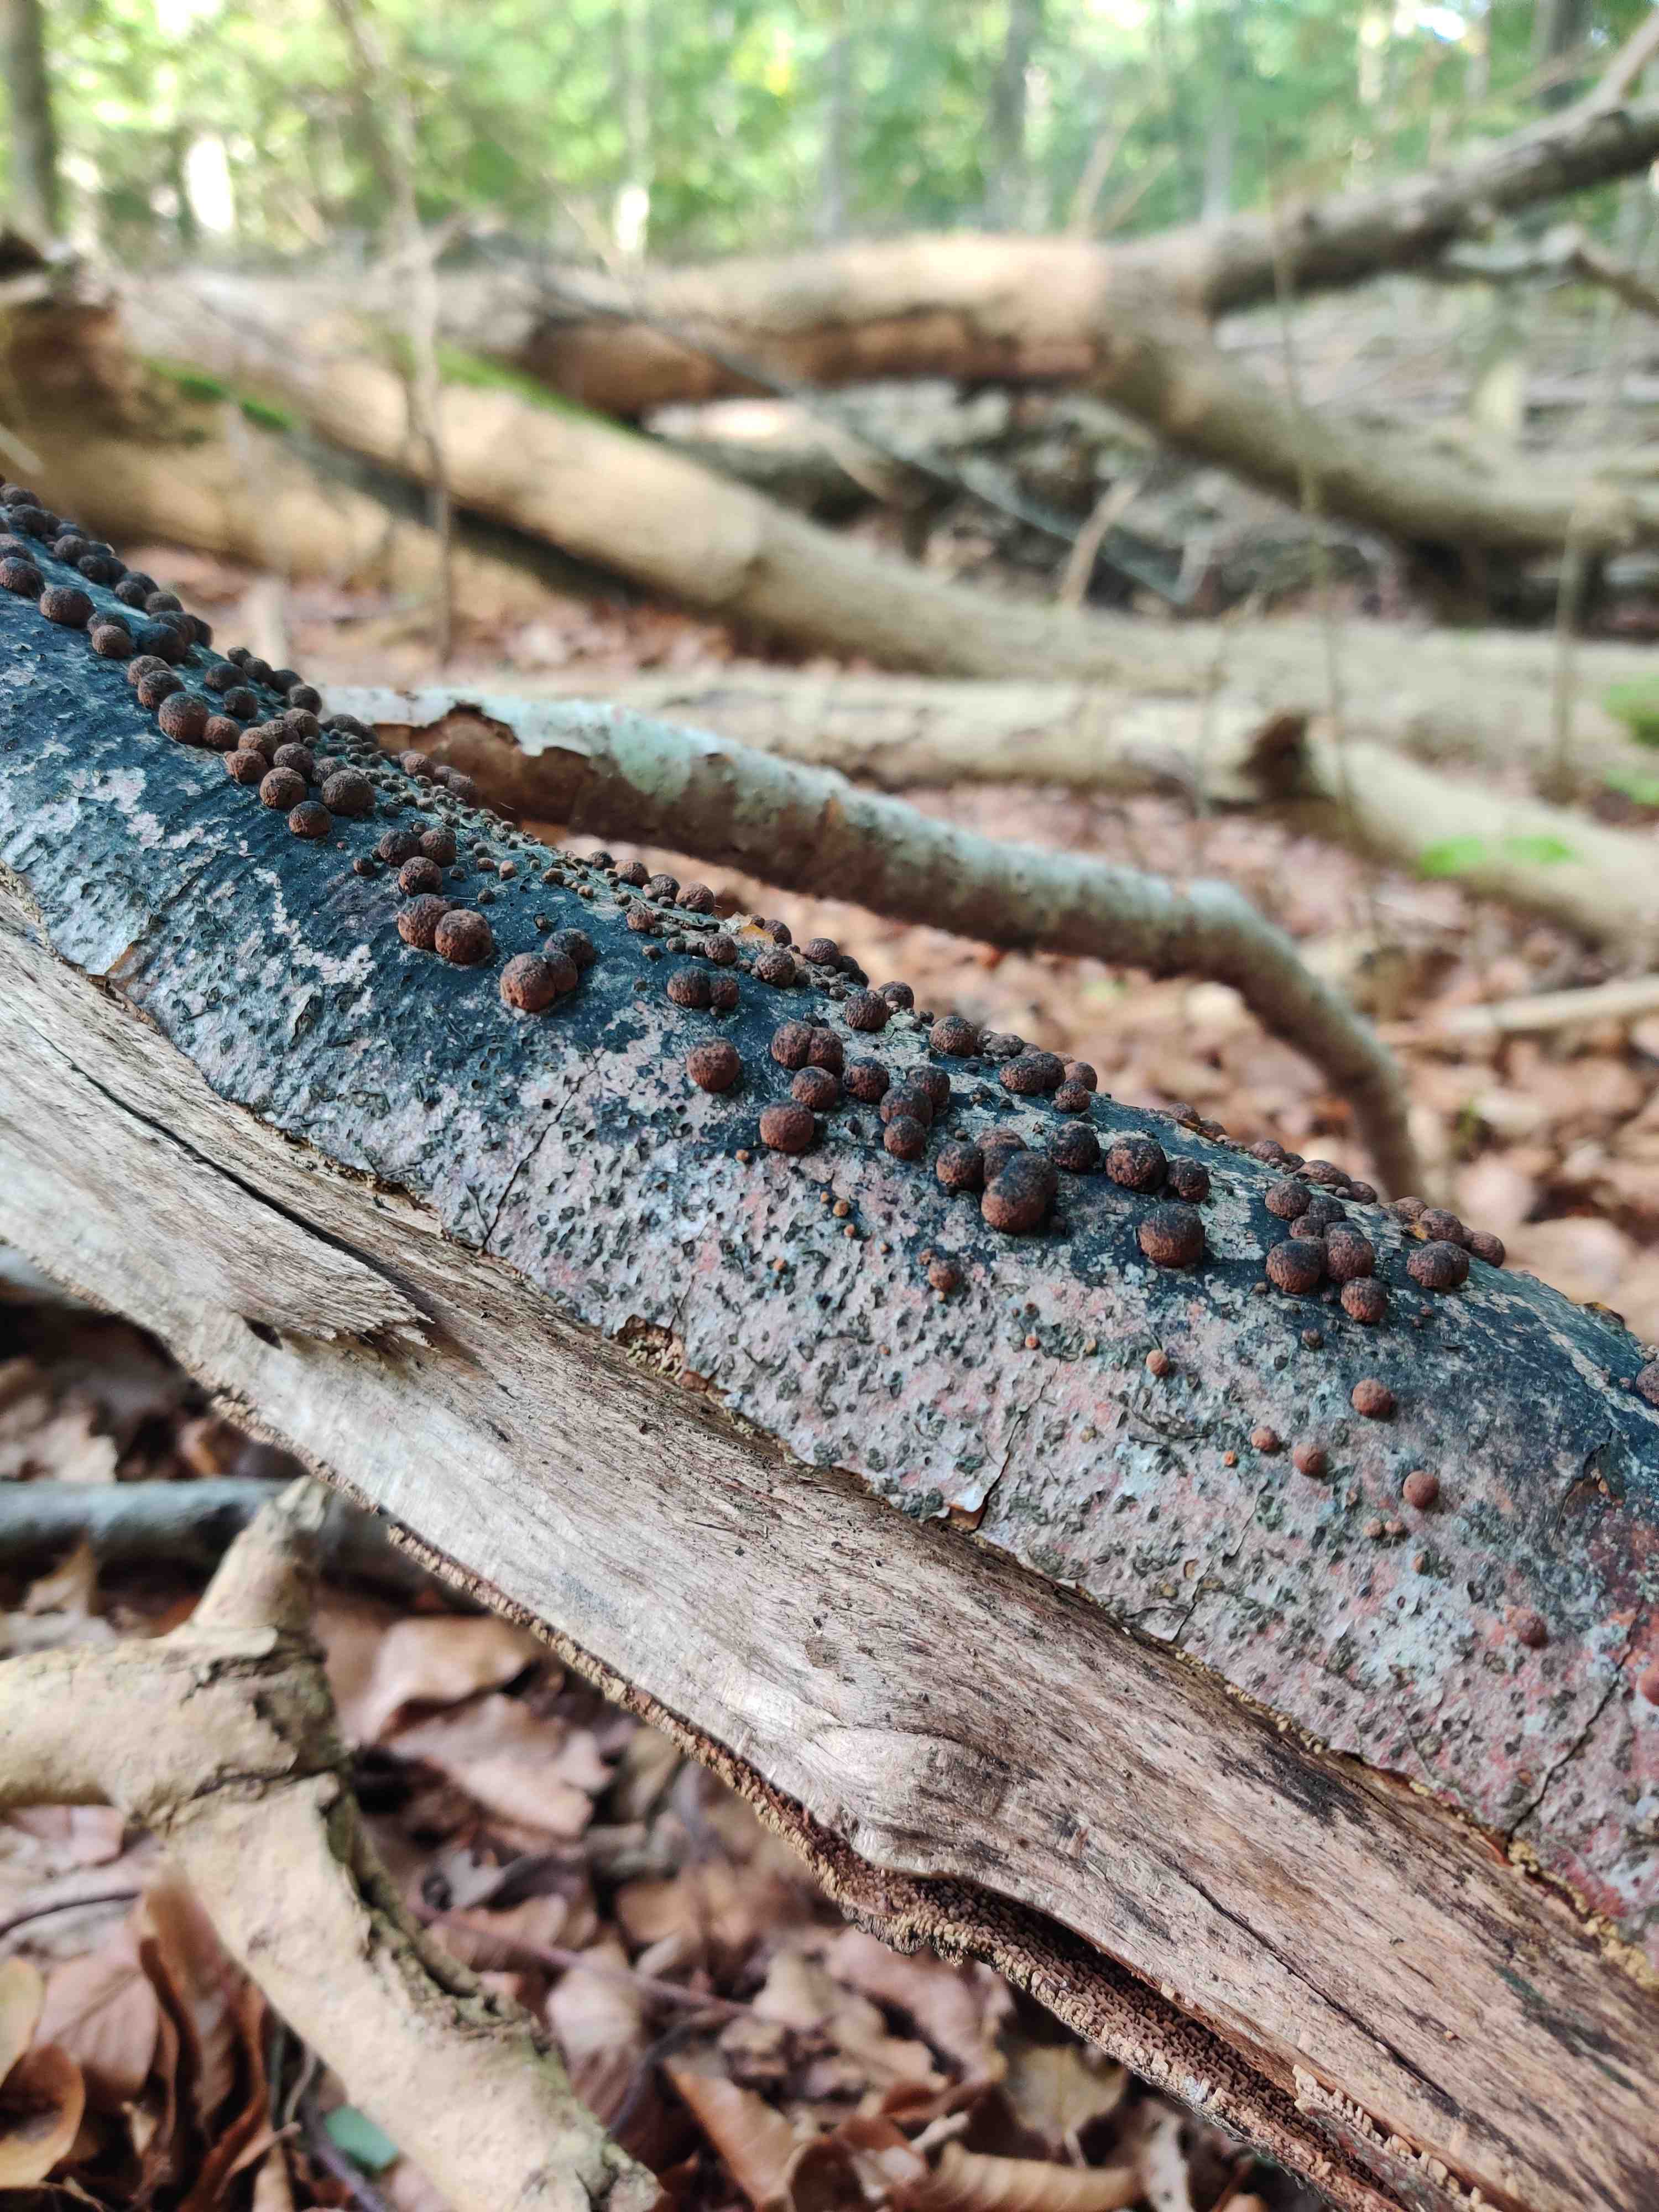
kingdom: Fungi
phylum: Ascomycota
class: Sordariomycetes
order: Xylariales
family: Hypoxylaceae
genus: Hypoxylon
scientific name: Hypoxylon fragiforme
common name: kuljordbær
